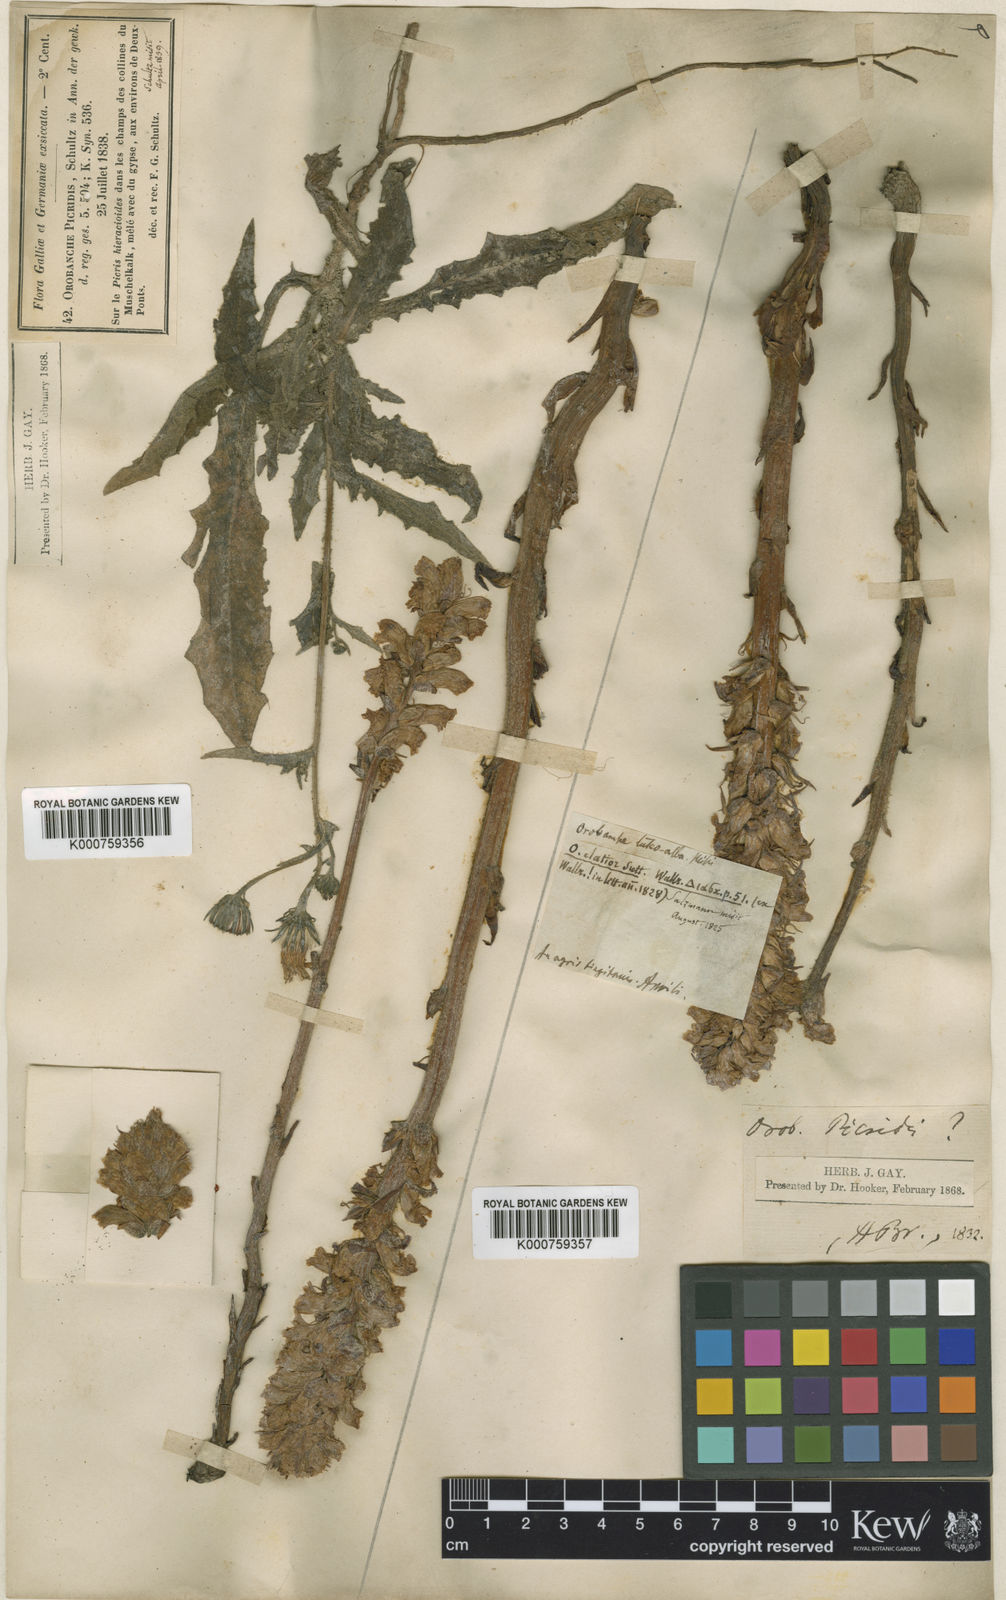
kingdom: Plantae
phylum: Tracheophyta
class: Magnoliopsida
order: Lamiales
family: Orobanchaceae
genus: Orobanche
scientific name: Orobanche picridis
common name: Oxtongue broomrape
